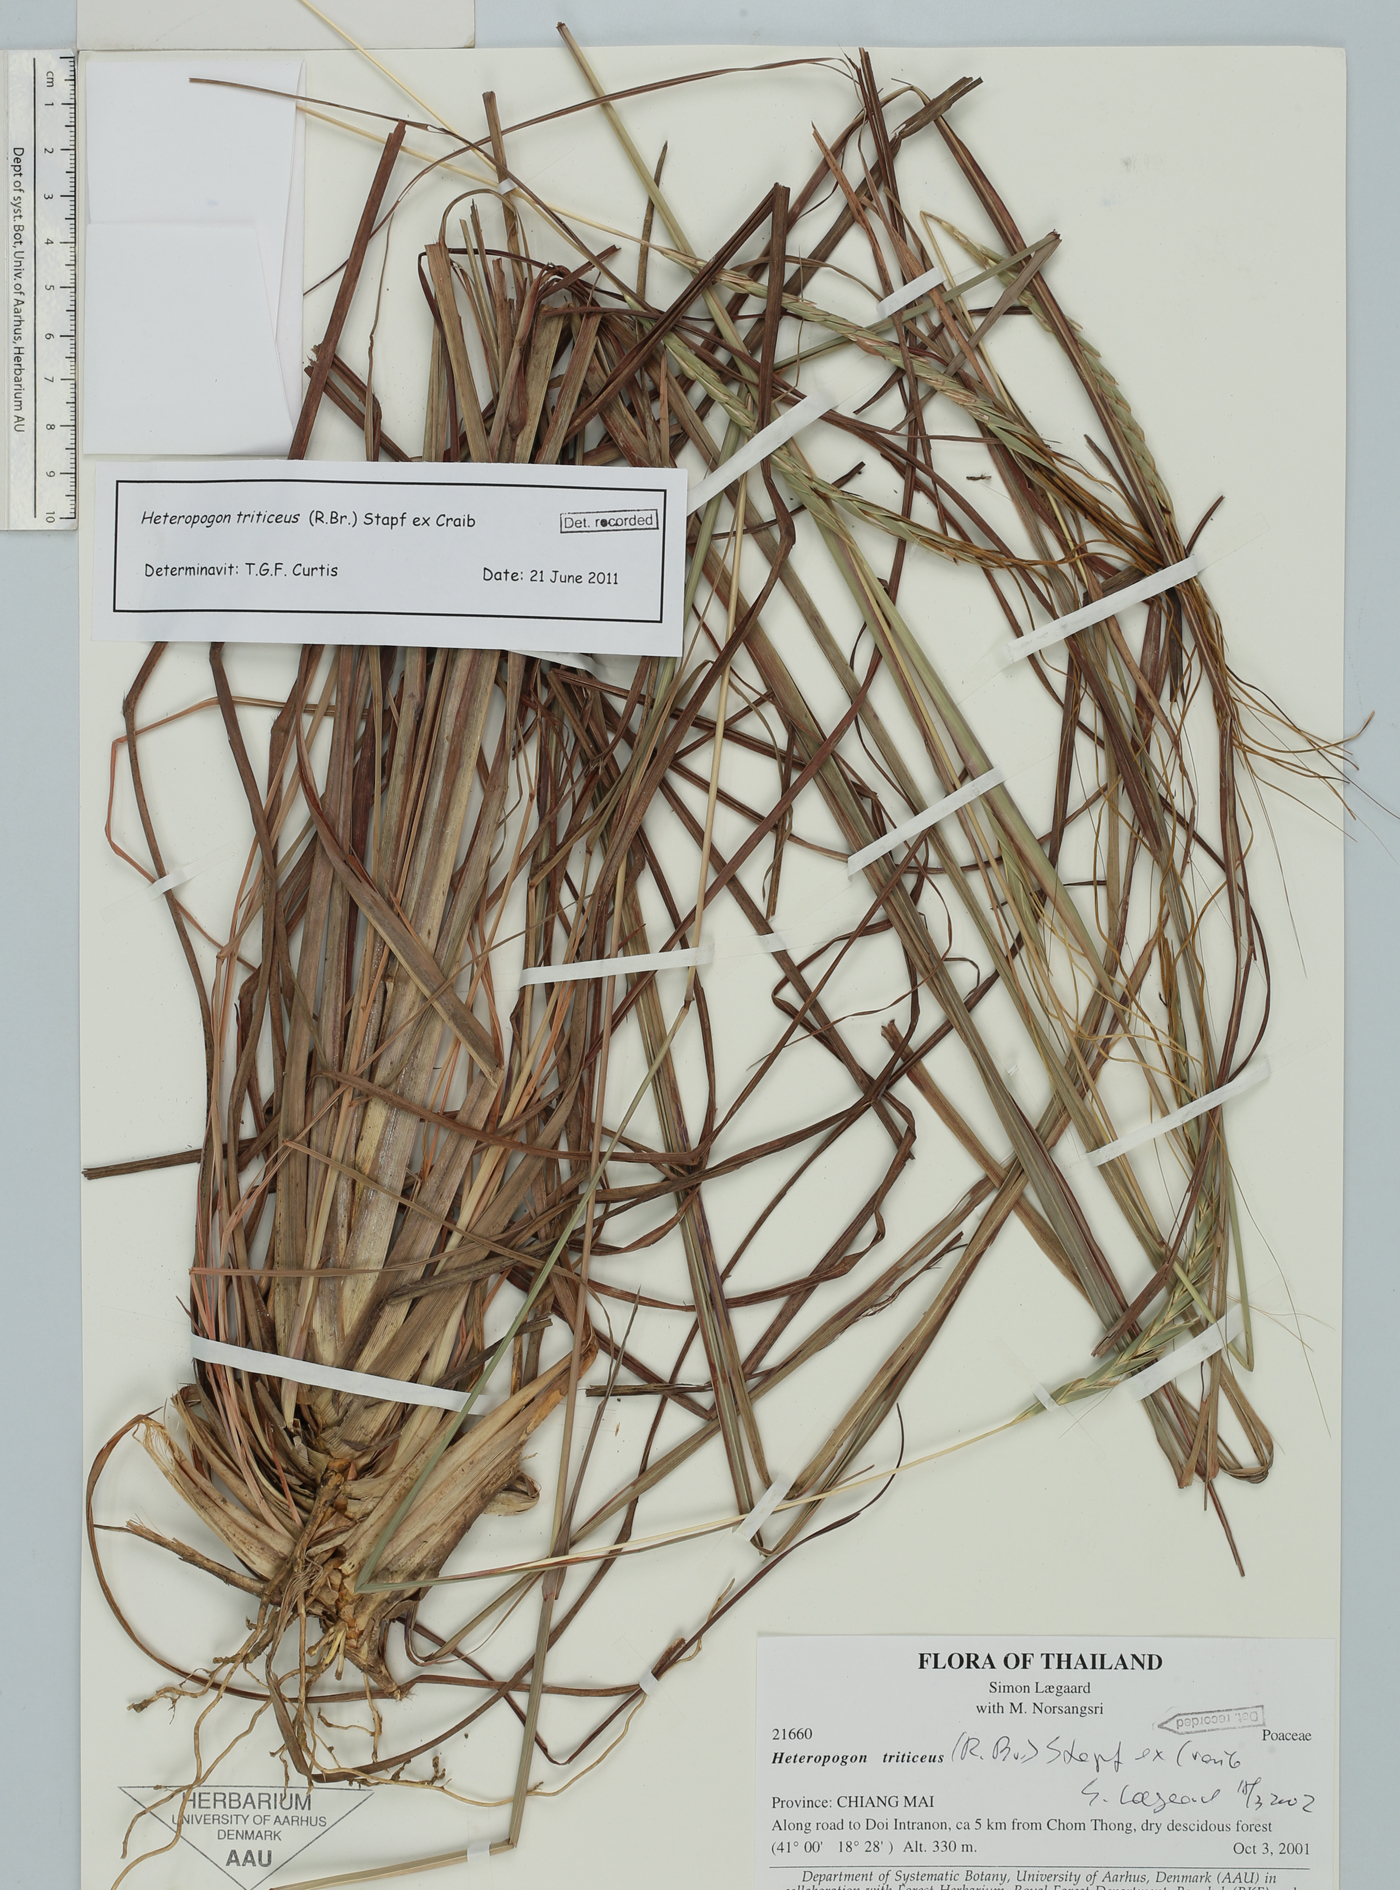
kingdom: Plantae
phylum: Tracheophyta
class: Liliopsida
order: Poales
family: Poaceae
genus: Heteropogon
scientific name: Heteropogon triticeus
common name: Sugar grass
